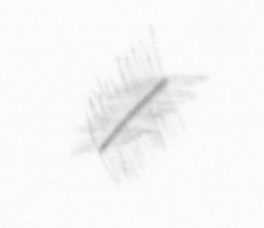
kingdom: Chromista
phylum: Ochrophyta
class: Bacillariophyceae
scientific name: Bacillariophyceae
